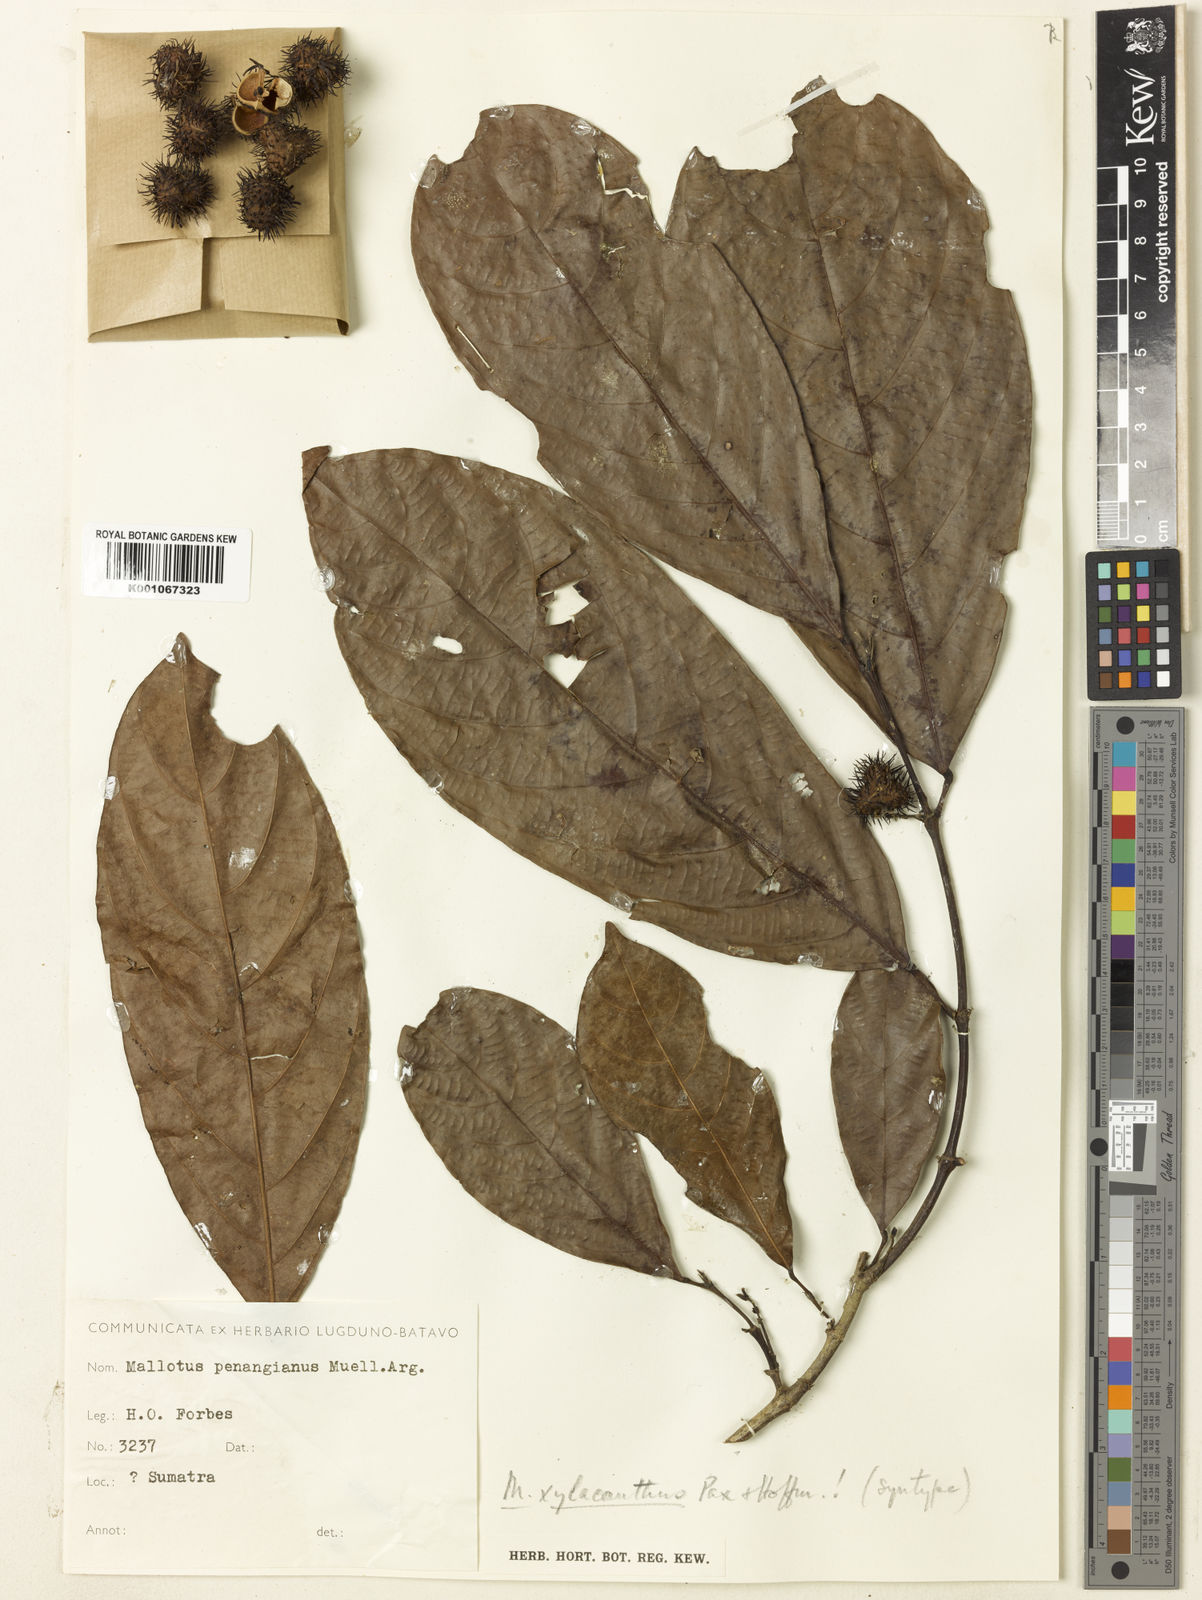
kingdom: Plantae
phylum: Tracheophyta
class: Magnoliopsida
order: Malpighiales
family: Euphorbiaceae
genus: Hancea
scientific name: Hancea penangensis
